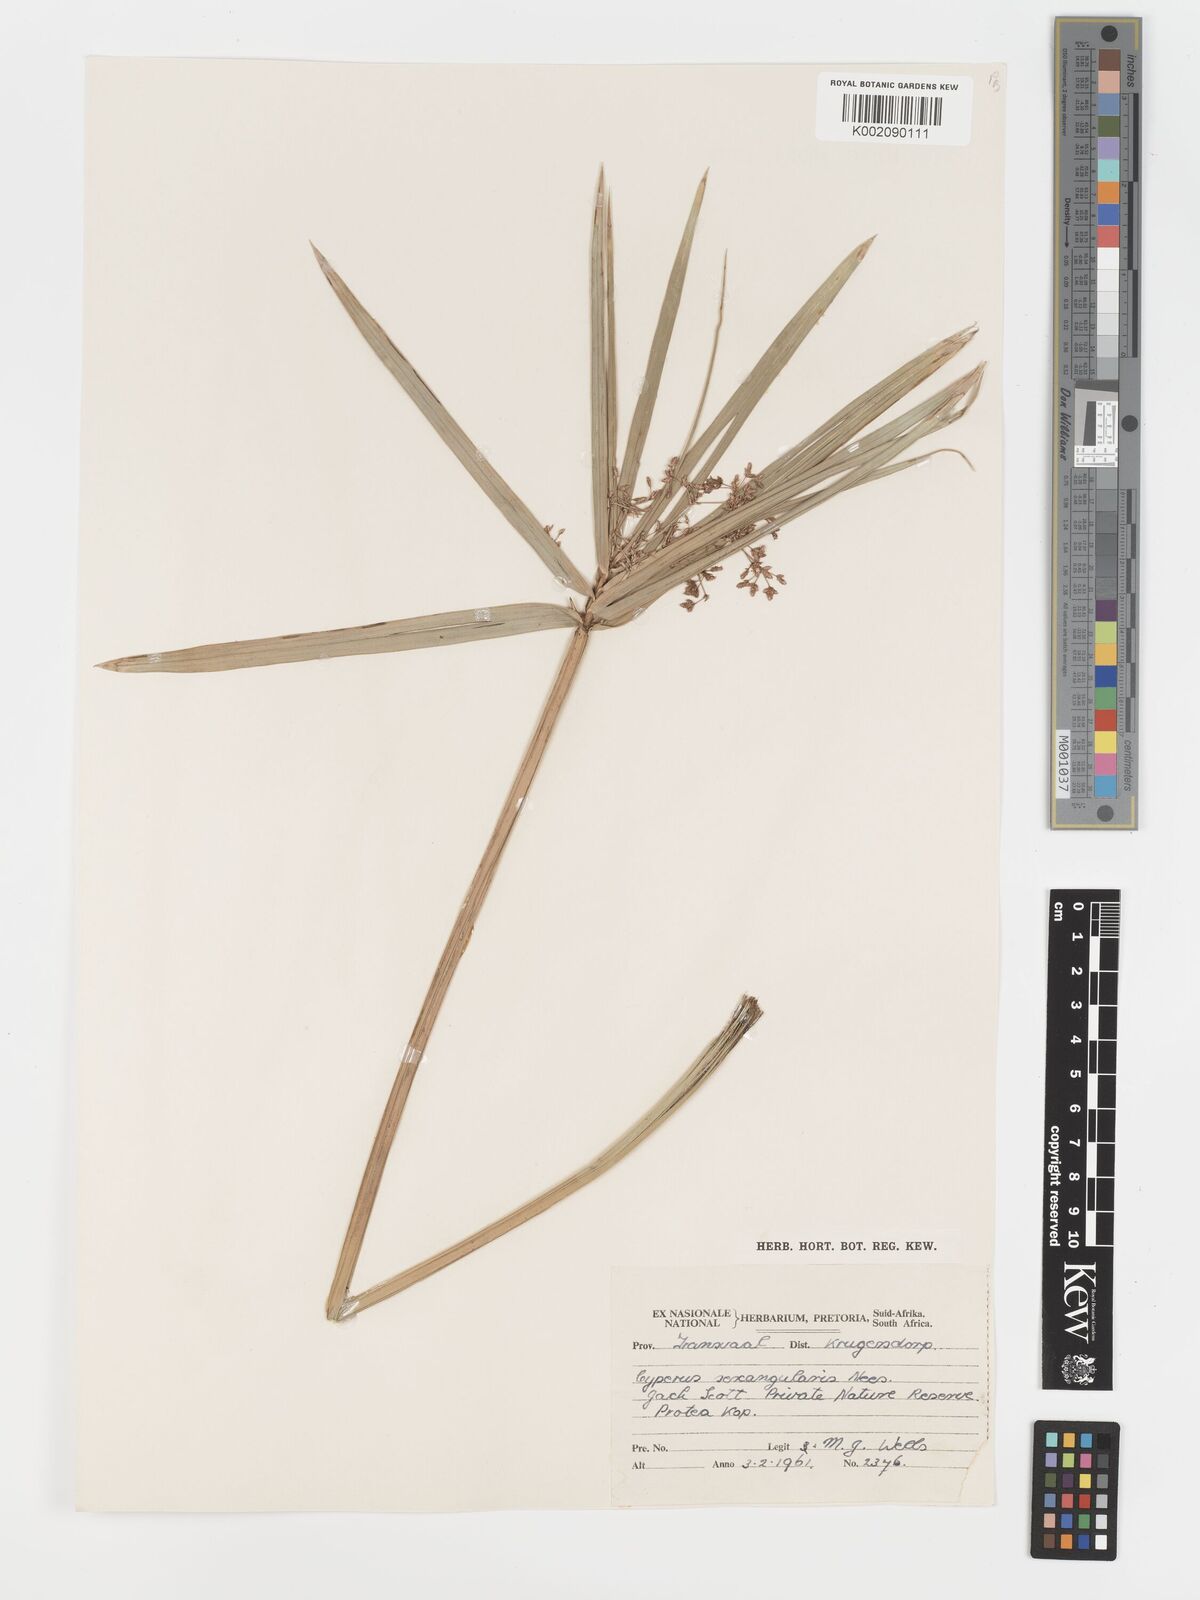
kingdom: Plantae
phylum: Tracheophyta
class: Liliopsida
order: Poales
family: Cyperaceae
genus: Cyperus
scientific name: Cyperus sexangularis
